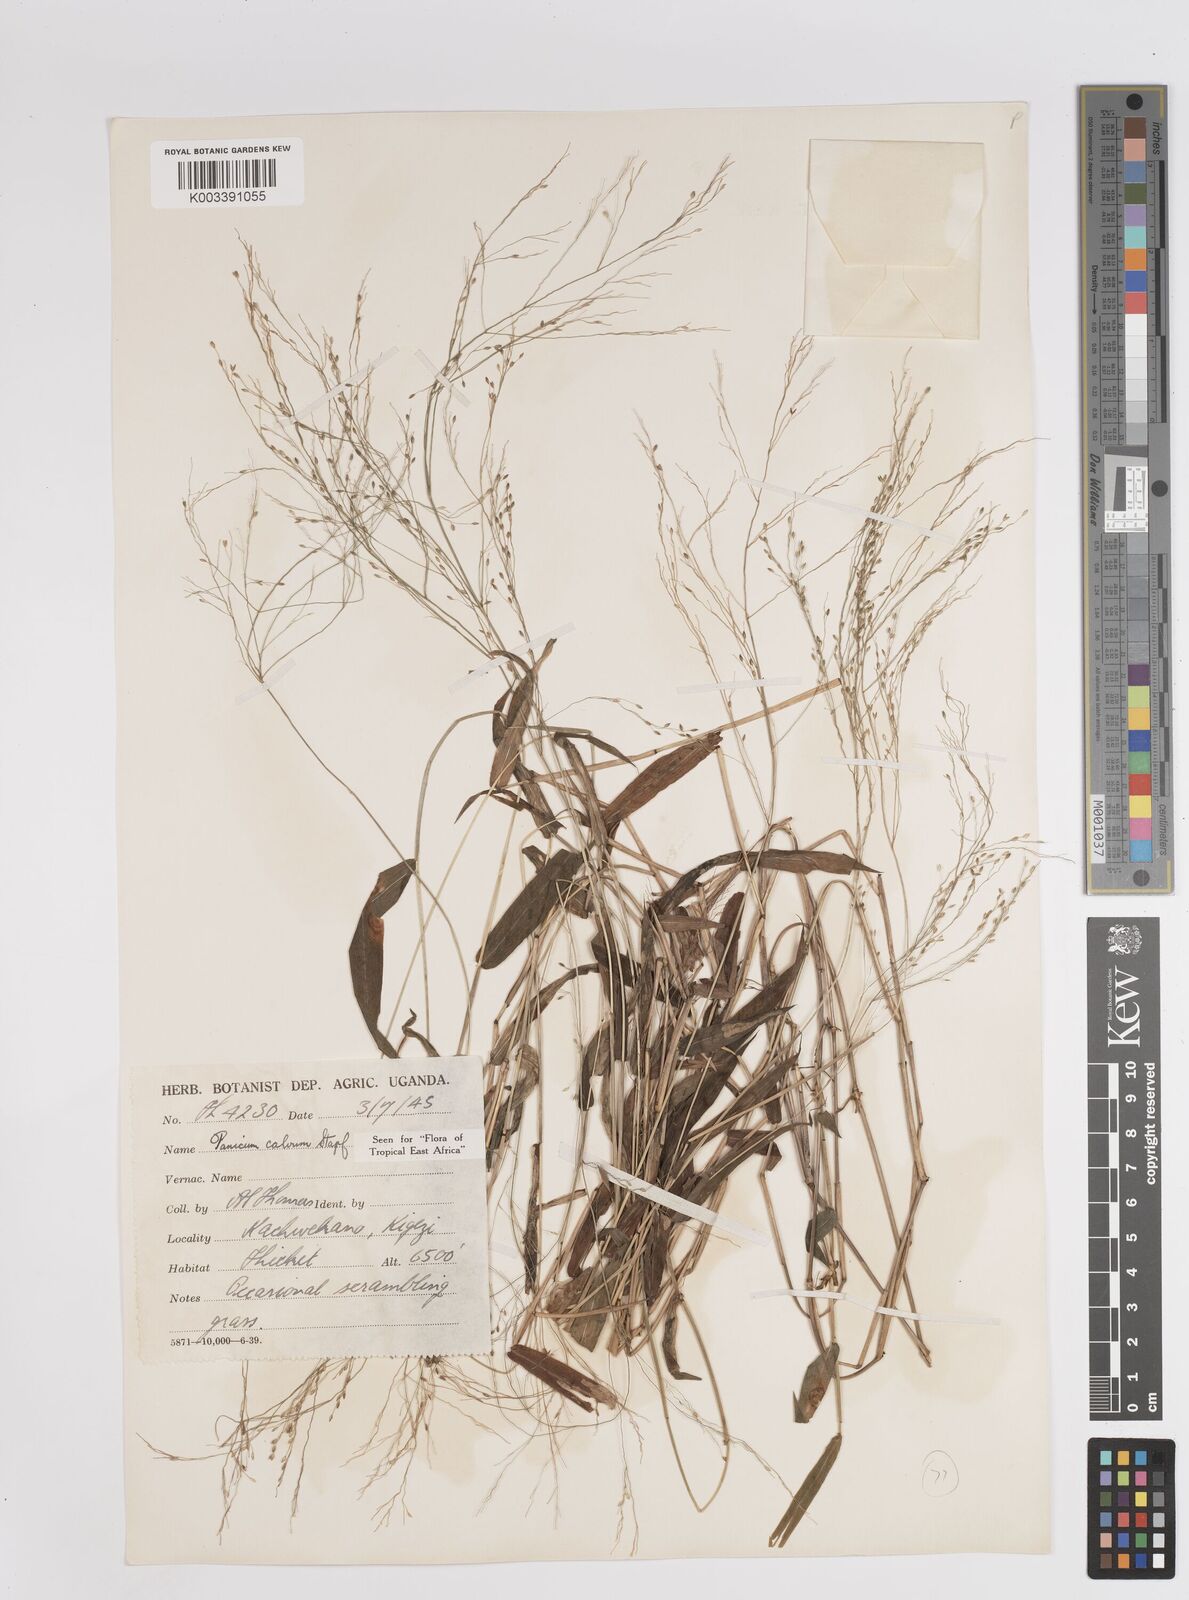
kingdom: Plantae
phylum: Tracheophyta
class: Liliopsida
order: Poales
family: Poaceae
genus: Panicum
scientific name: Panicum calvum
